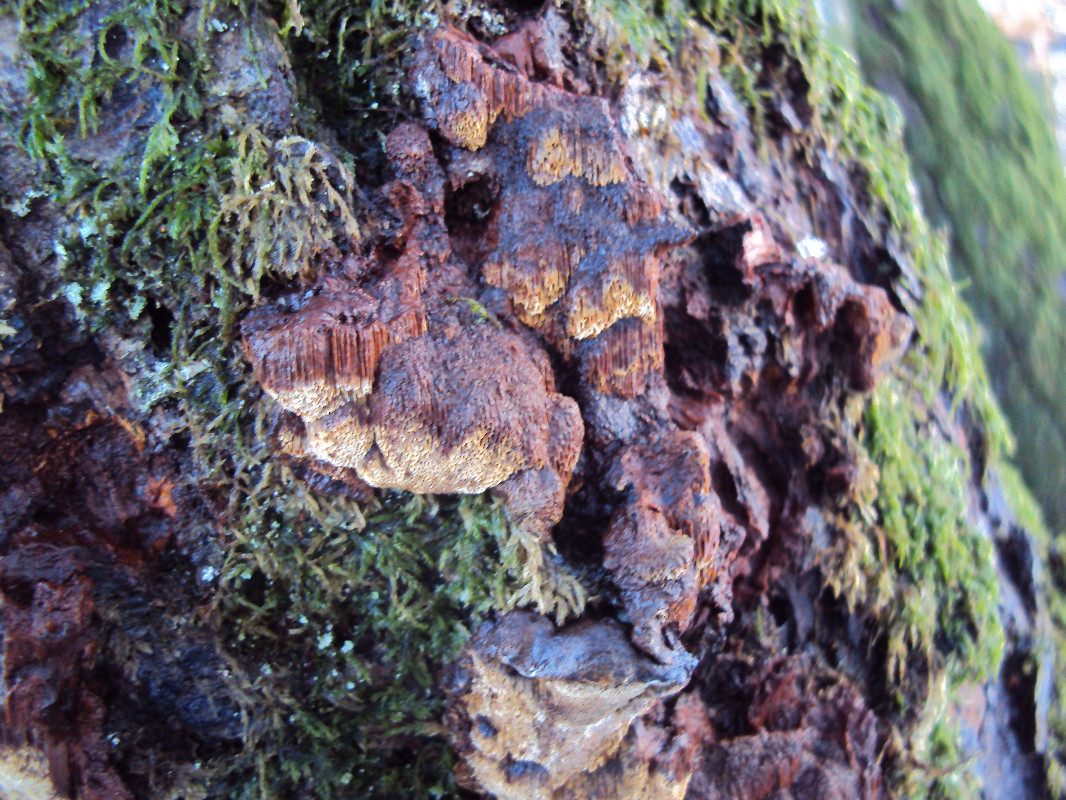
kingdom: Fungi
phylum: Basidiomycota
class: Agaricomycetes
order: Hymenochaetales
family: Hymenochaetaceae
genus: Xanthoporia
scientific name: Xanthoporia radiata
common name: elle-spejlporesvamp
